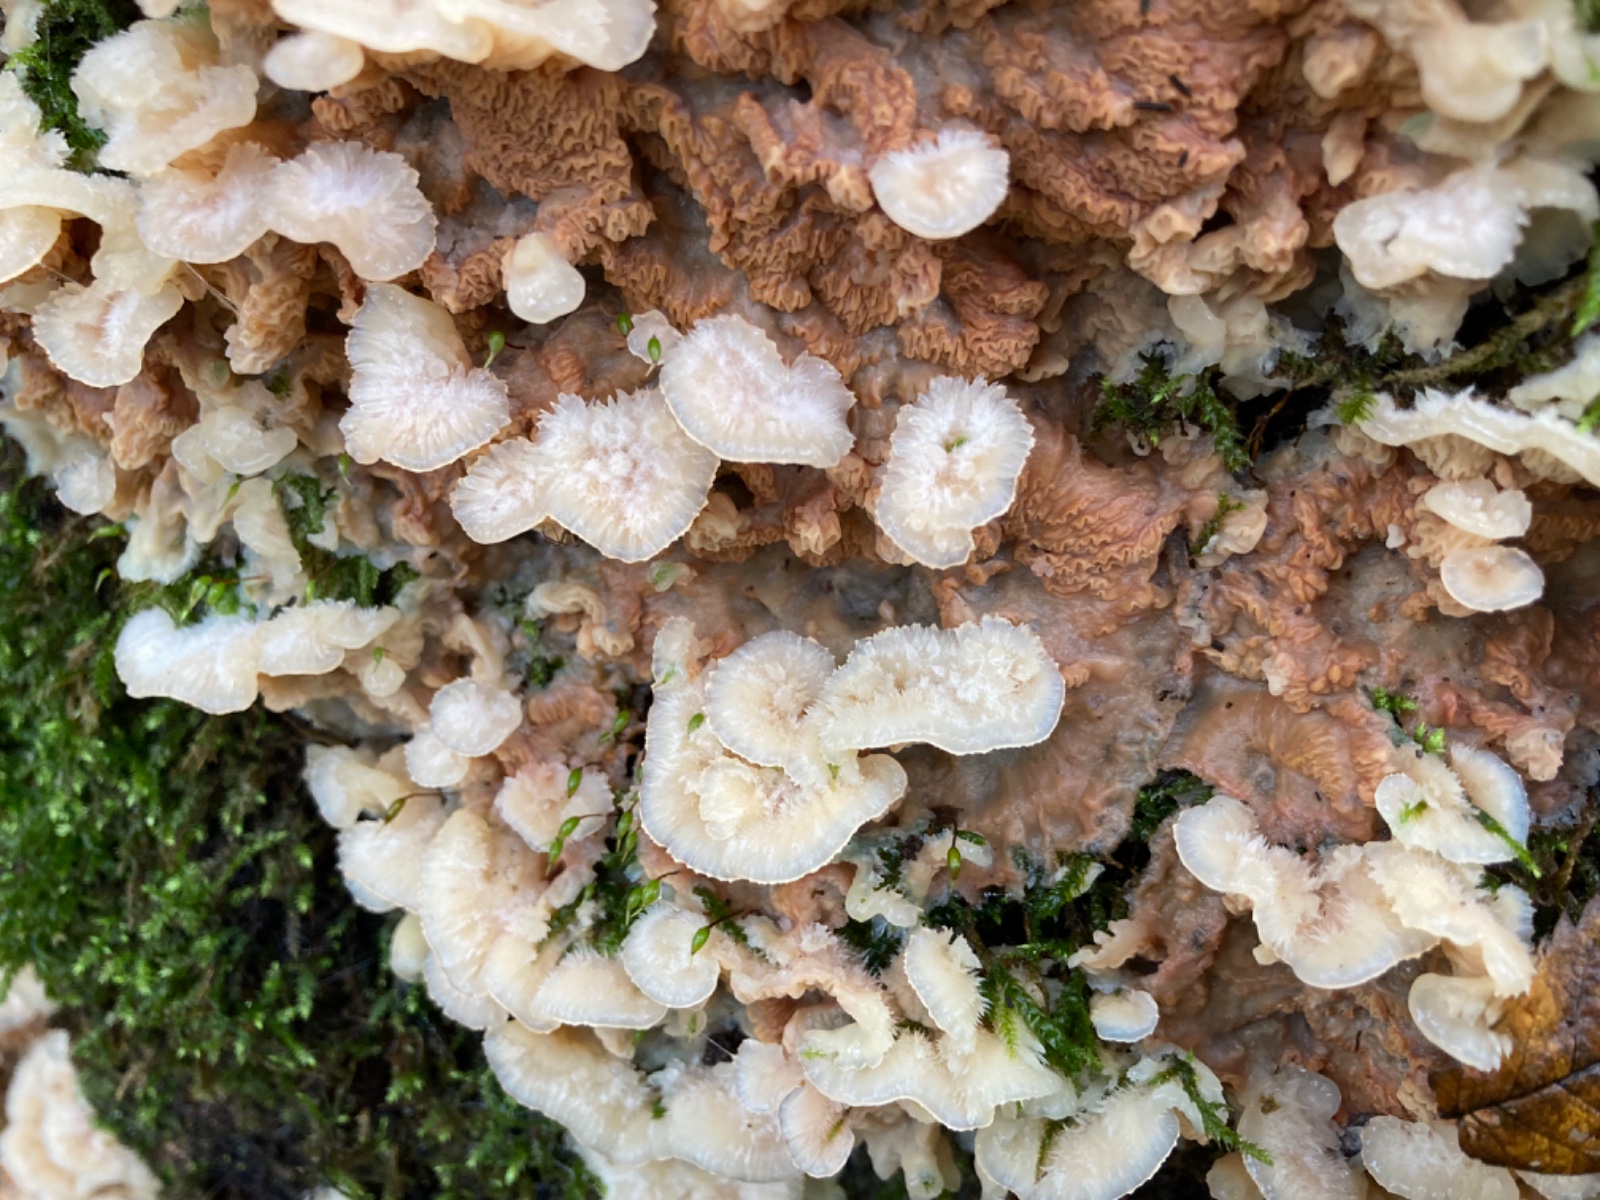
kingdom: Fungi
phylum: Basidiomycota
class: Agaricomycetes
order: Polyporales
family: Meruliaceae
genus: Phlebia
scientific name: Phlebia tremellosa
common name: bævrende åresvamp
